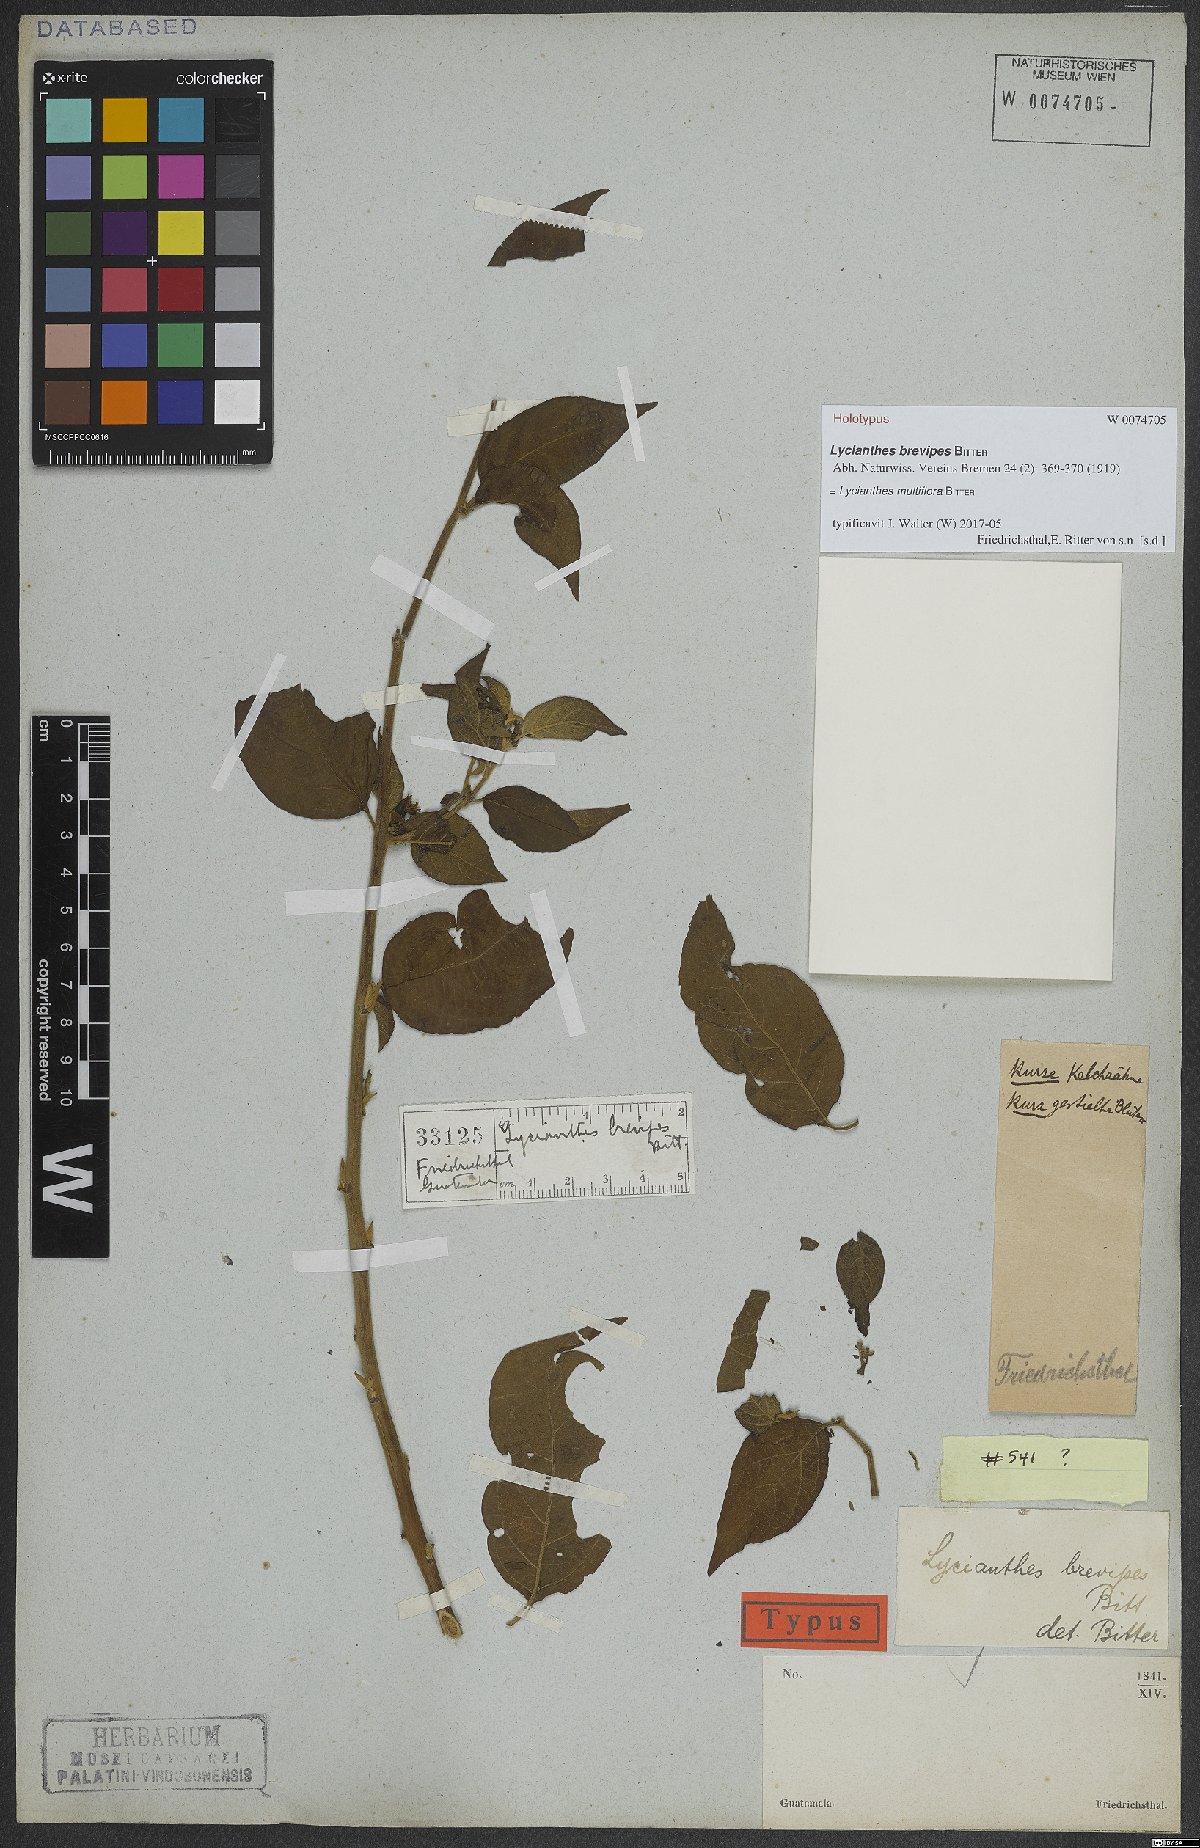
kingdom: Plantae
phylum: Tracheophyta
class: Magnoliopsida
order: Solanales
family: Solanaceae
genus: Lycianthes
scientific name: Lycianthes multiflora
